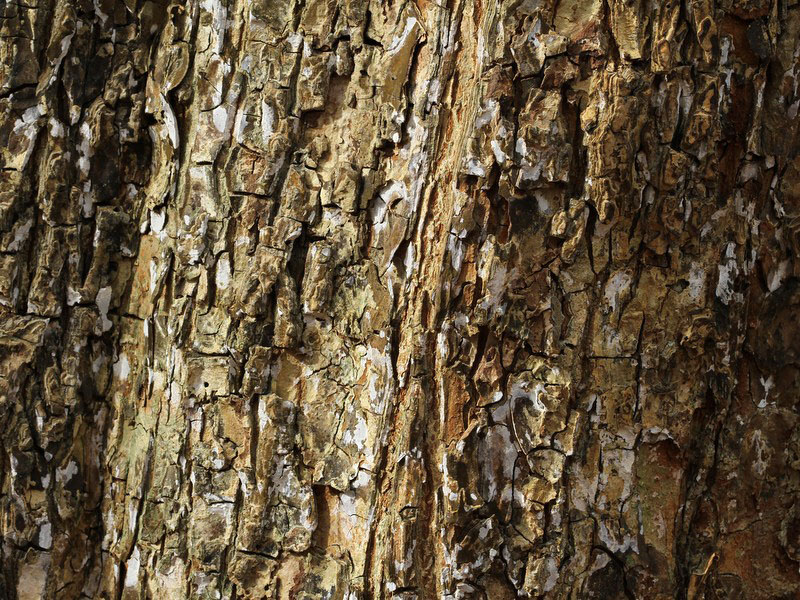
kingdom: Fungi
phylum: Basidiomycota
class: Agaricomycetes
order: Agaricales
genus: Dendrothele
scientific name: Dendrothele acerina
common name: navr-kalkplet
